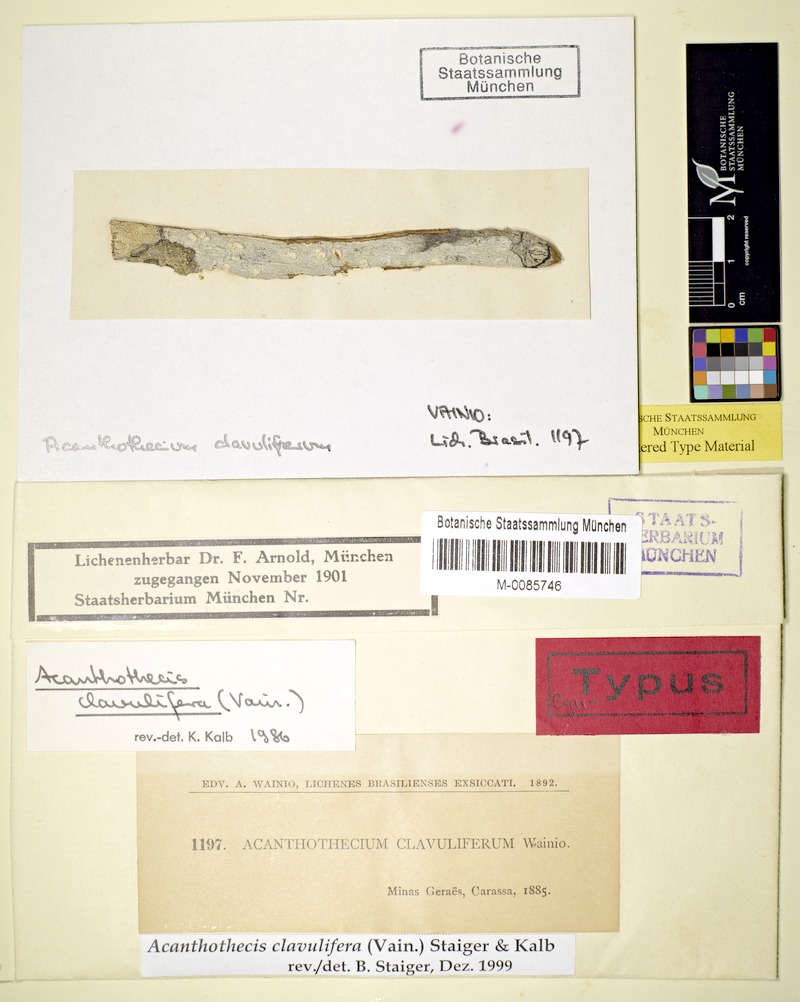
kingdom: Fungi
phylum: Ascomycota
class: Lecanoromycetes
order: Ostropales
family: Graphidaceae
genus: Acanthothecis
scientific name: Acanthothecis
